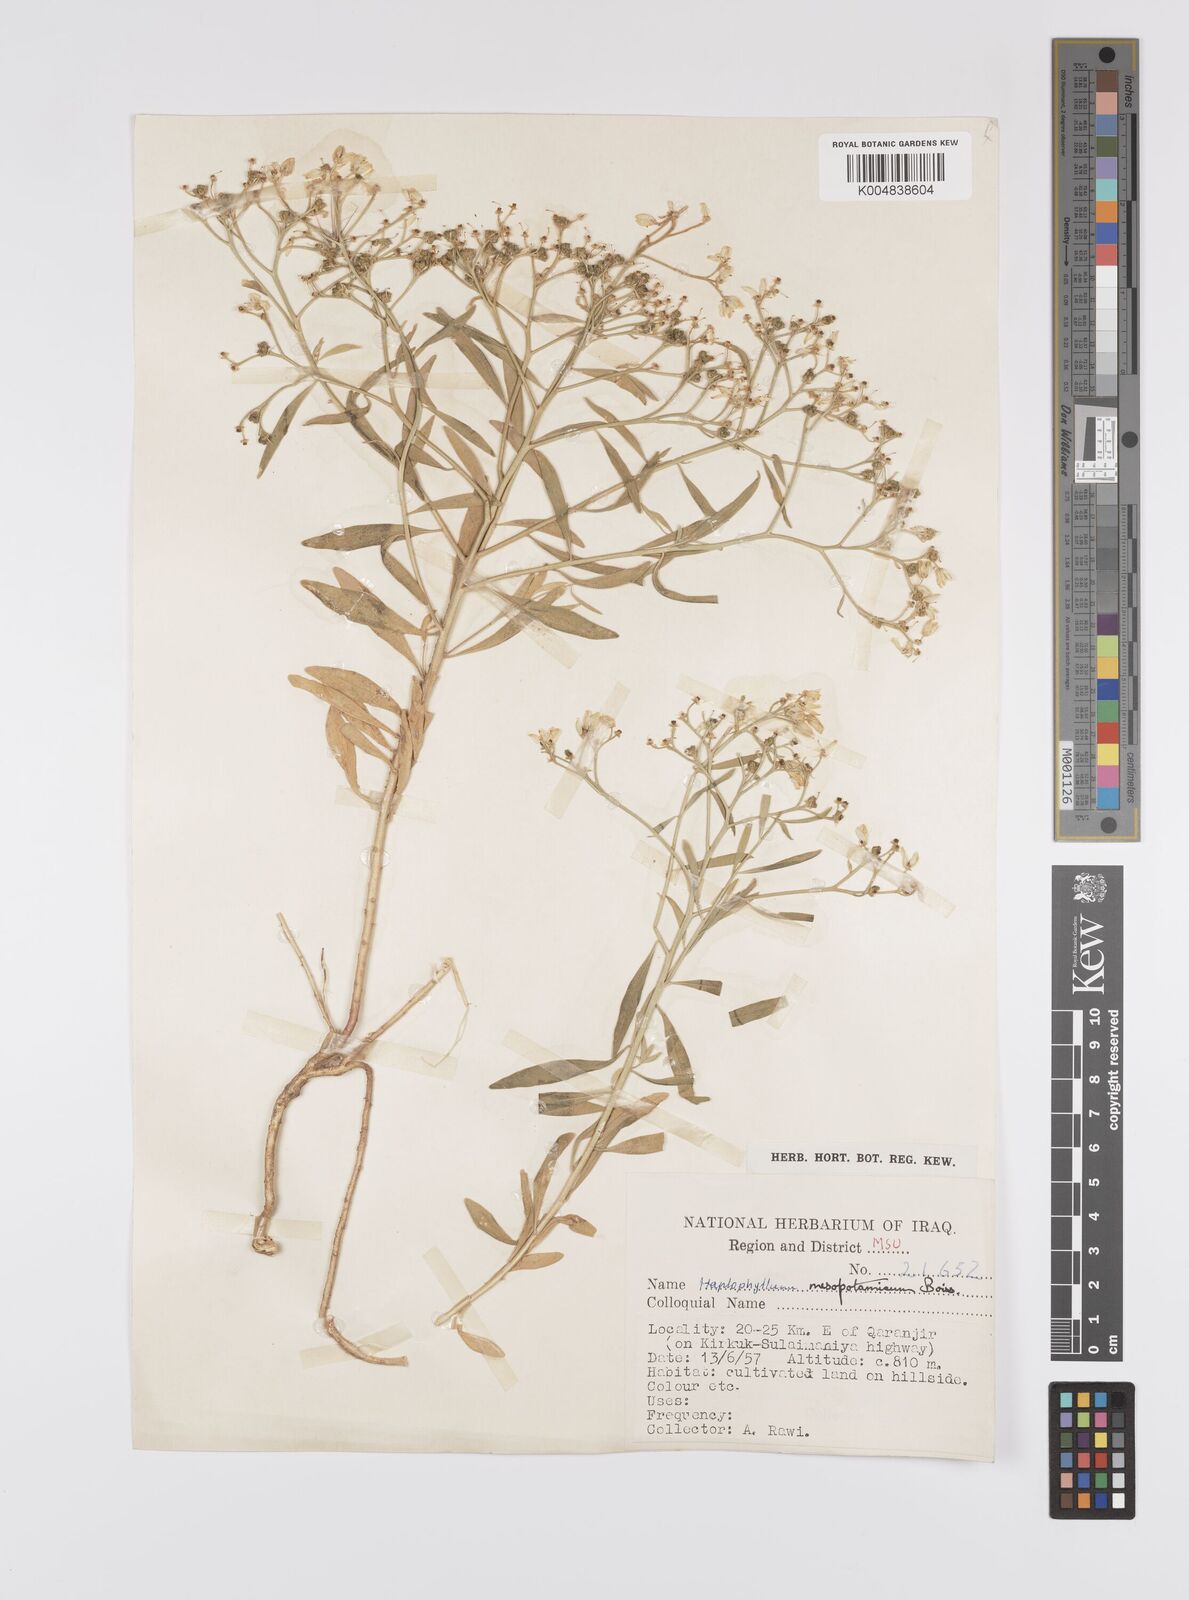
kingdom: Plantae
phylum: Tracheophyta
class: Magnoliopsida
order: Sapindales
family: Rutaceae
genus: Haplophyllum
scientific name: Haplophyllum buxbaumii
